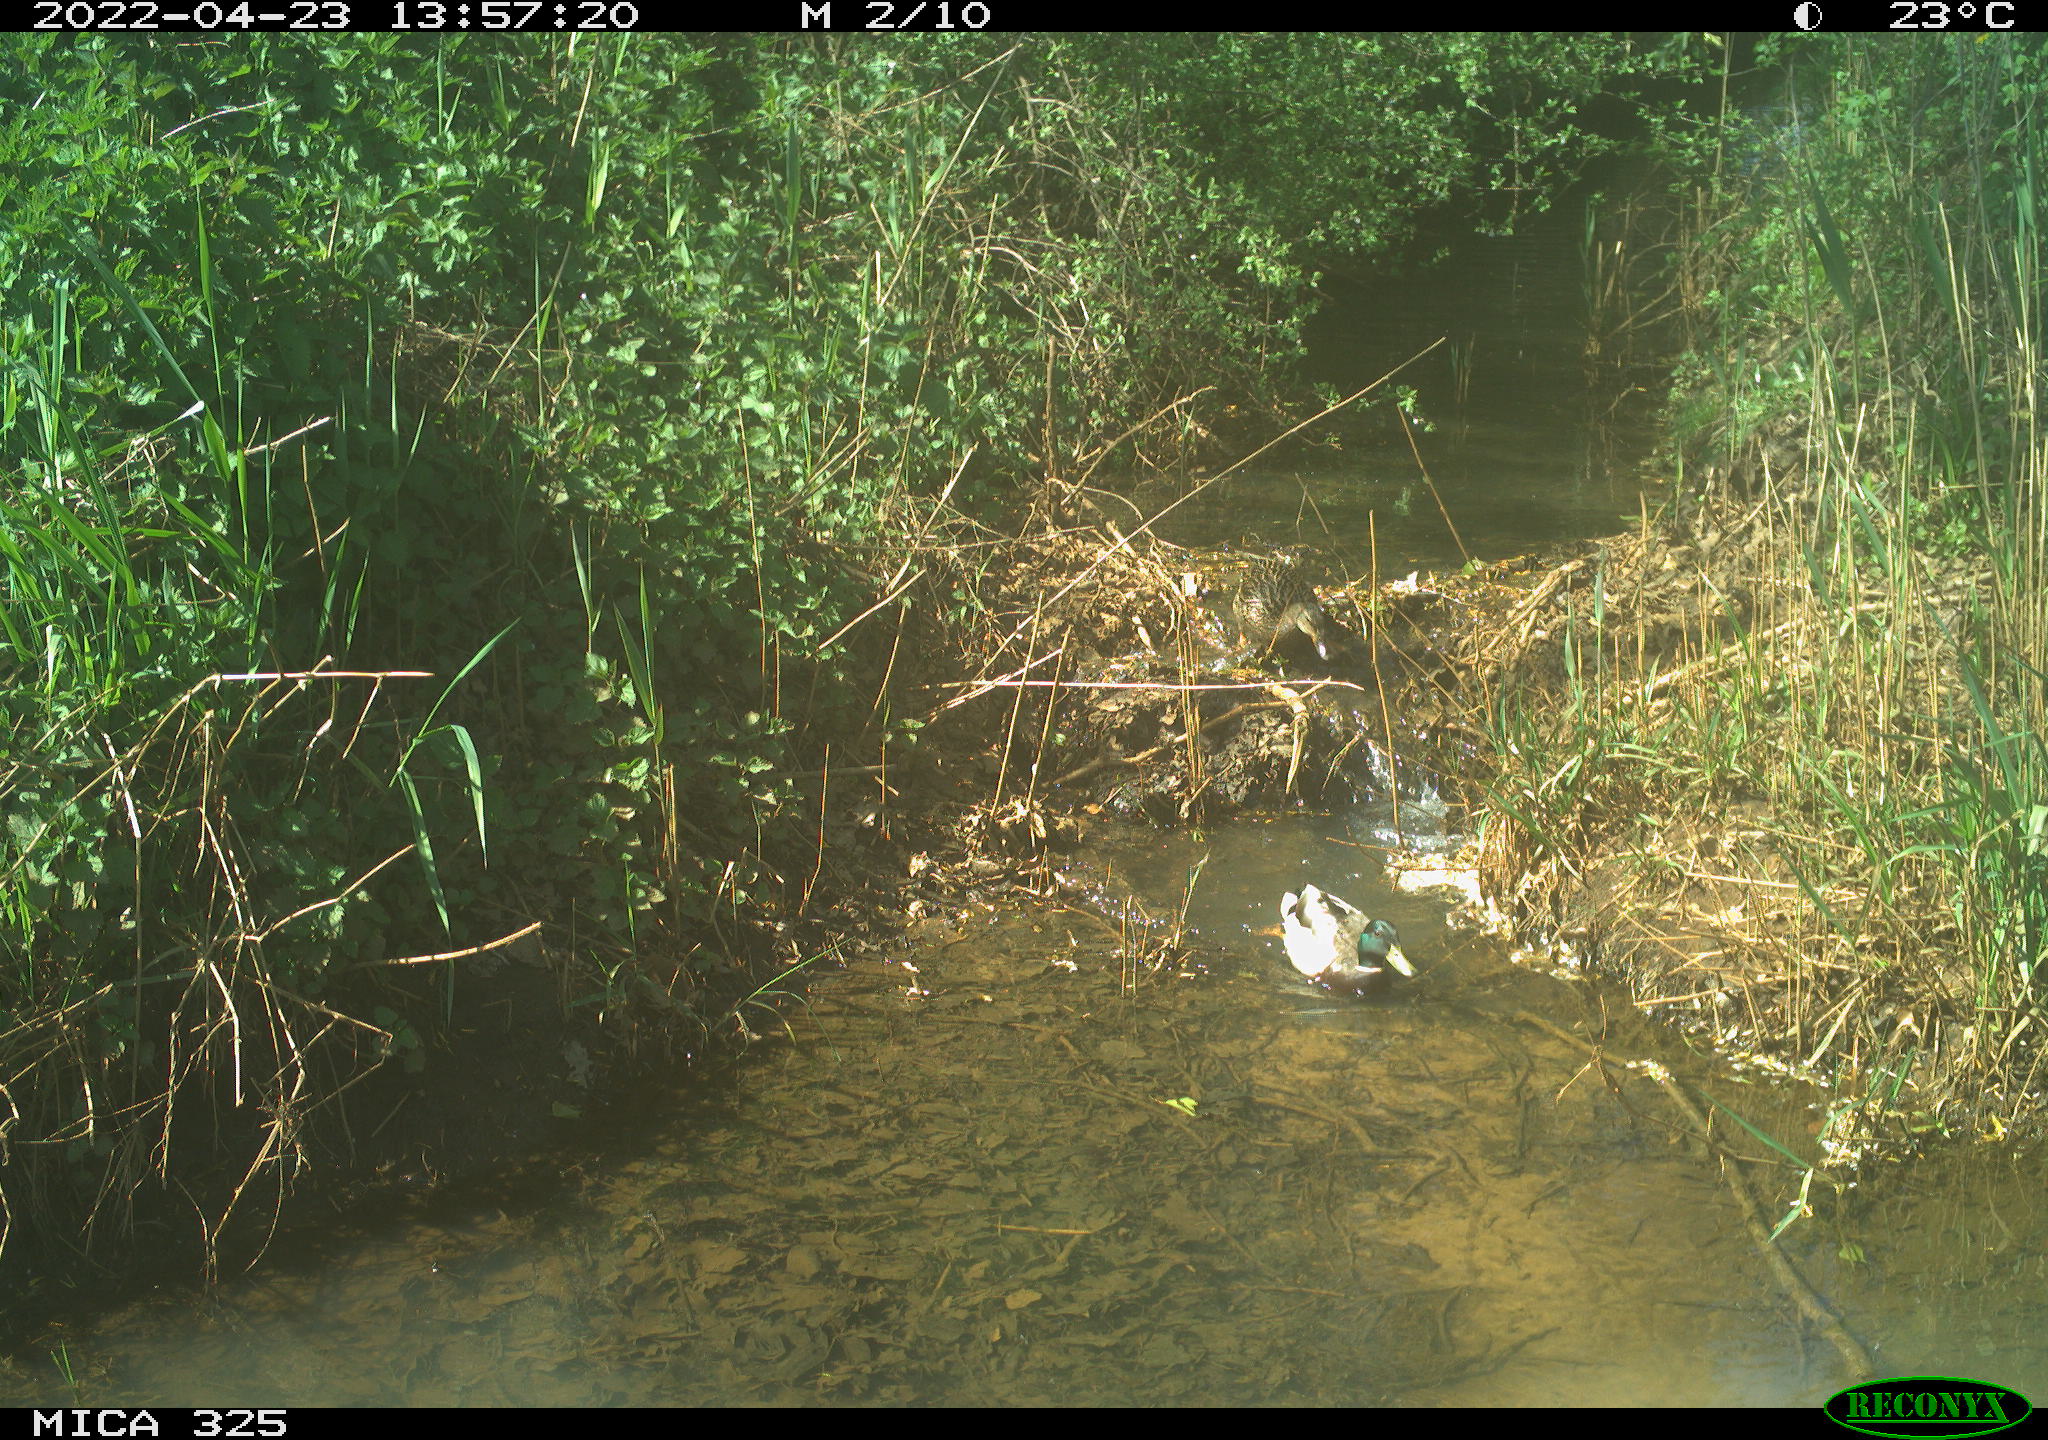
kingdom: Animalia
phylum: Chordata
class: Aves
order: Anseriformes
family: Anatidae
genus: Anas
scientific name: Anas platyrhynchos
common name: Mallard
